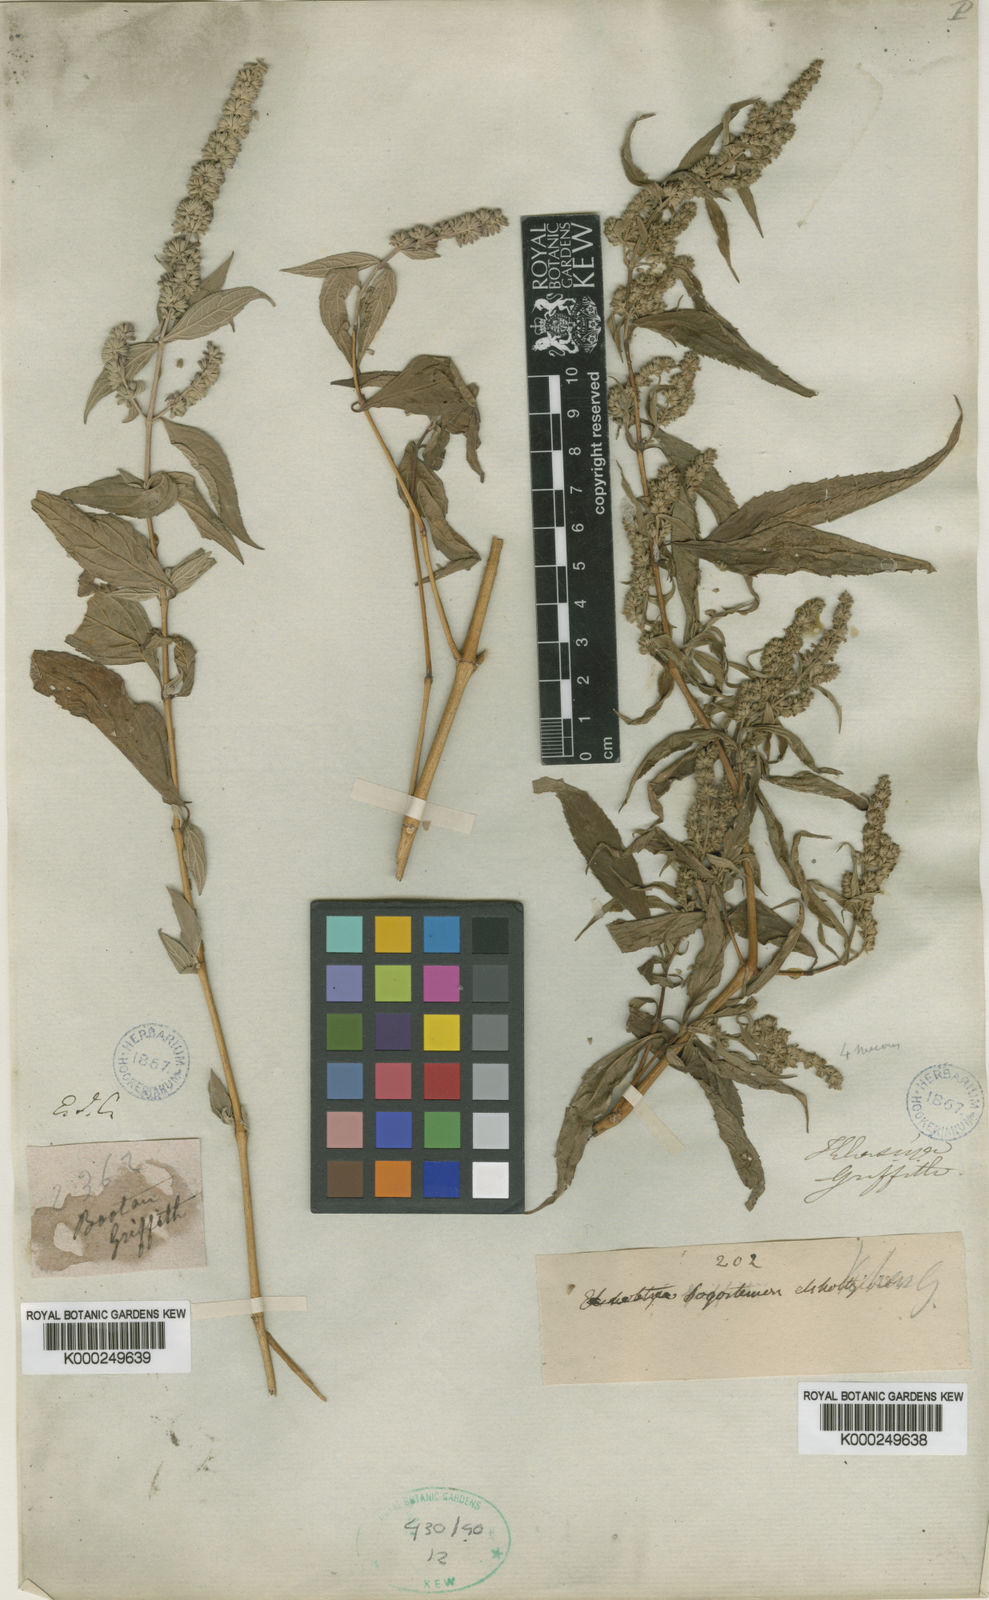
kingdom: Plantae
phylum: Tracheophyta
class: Magnoliopsida
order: Lamiales
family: Lamiaceae
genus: Pogostemon
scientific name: Pogostemon elsholtzioides
